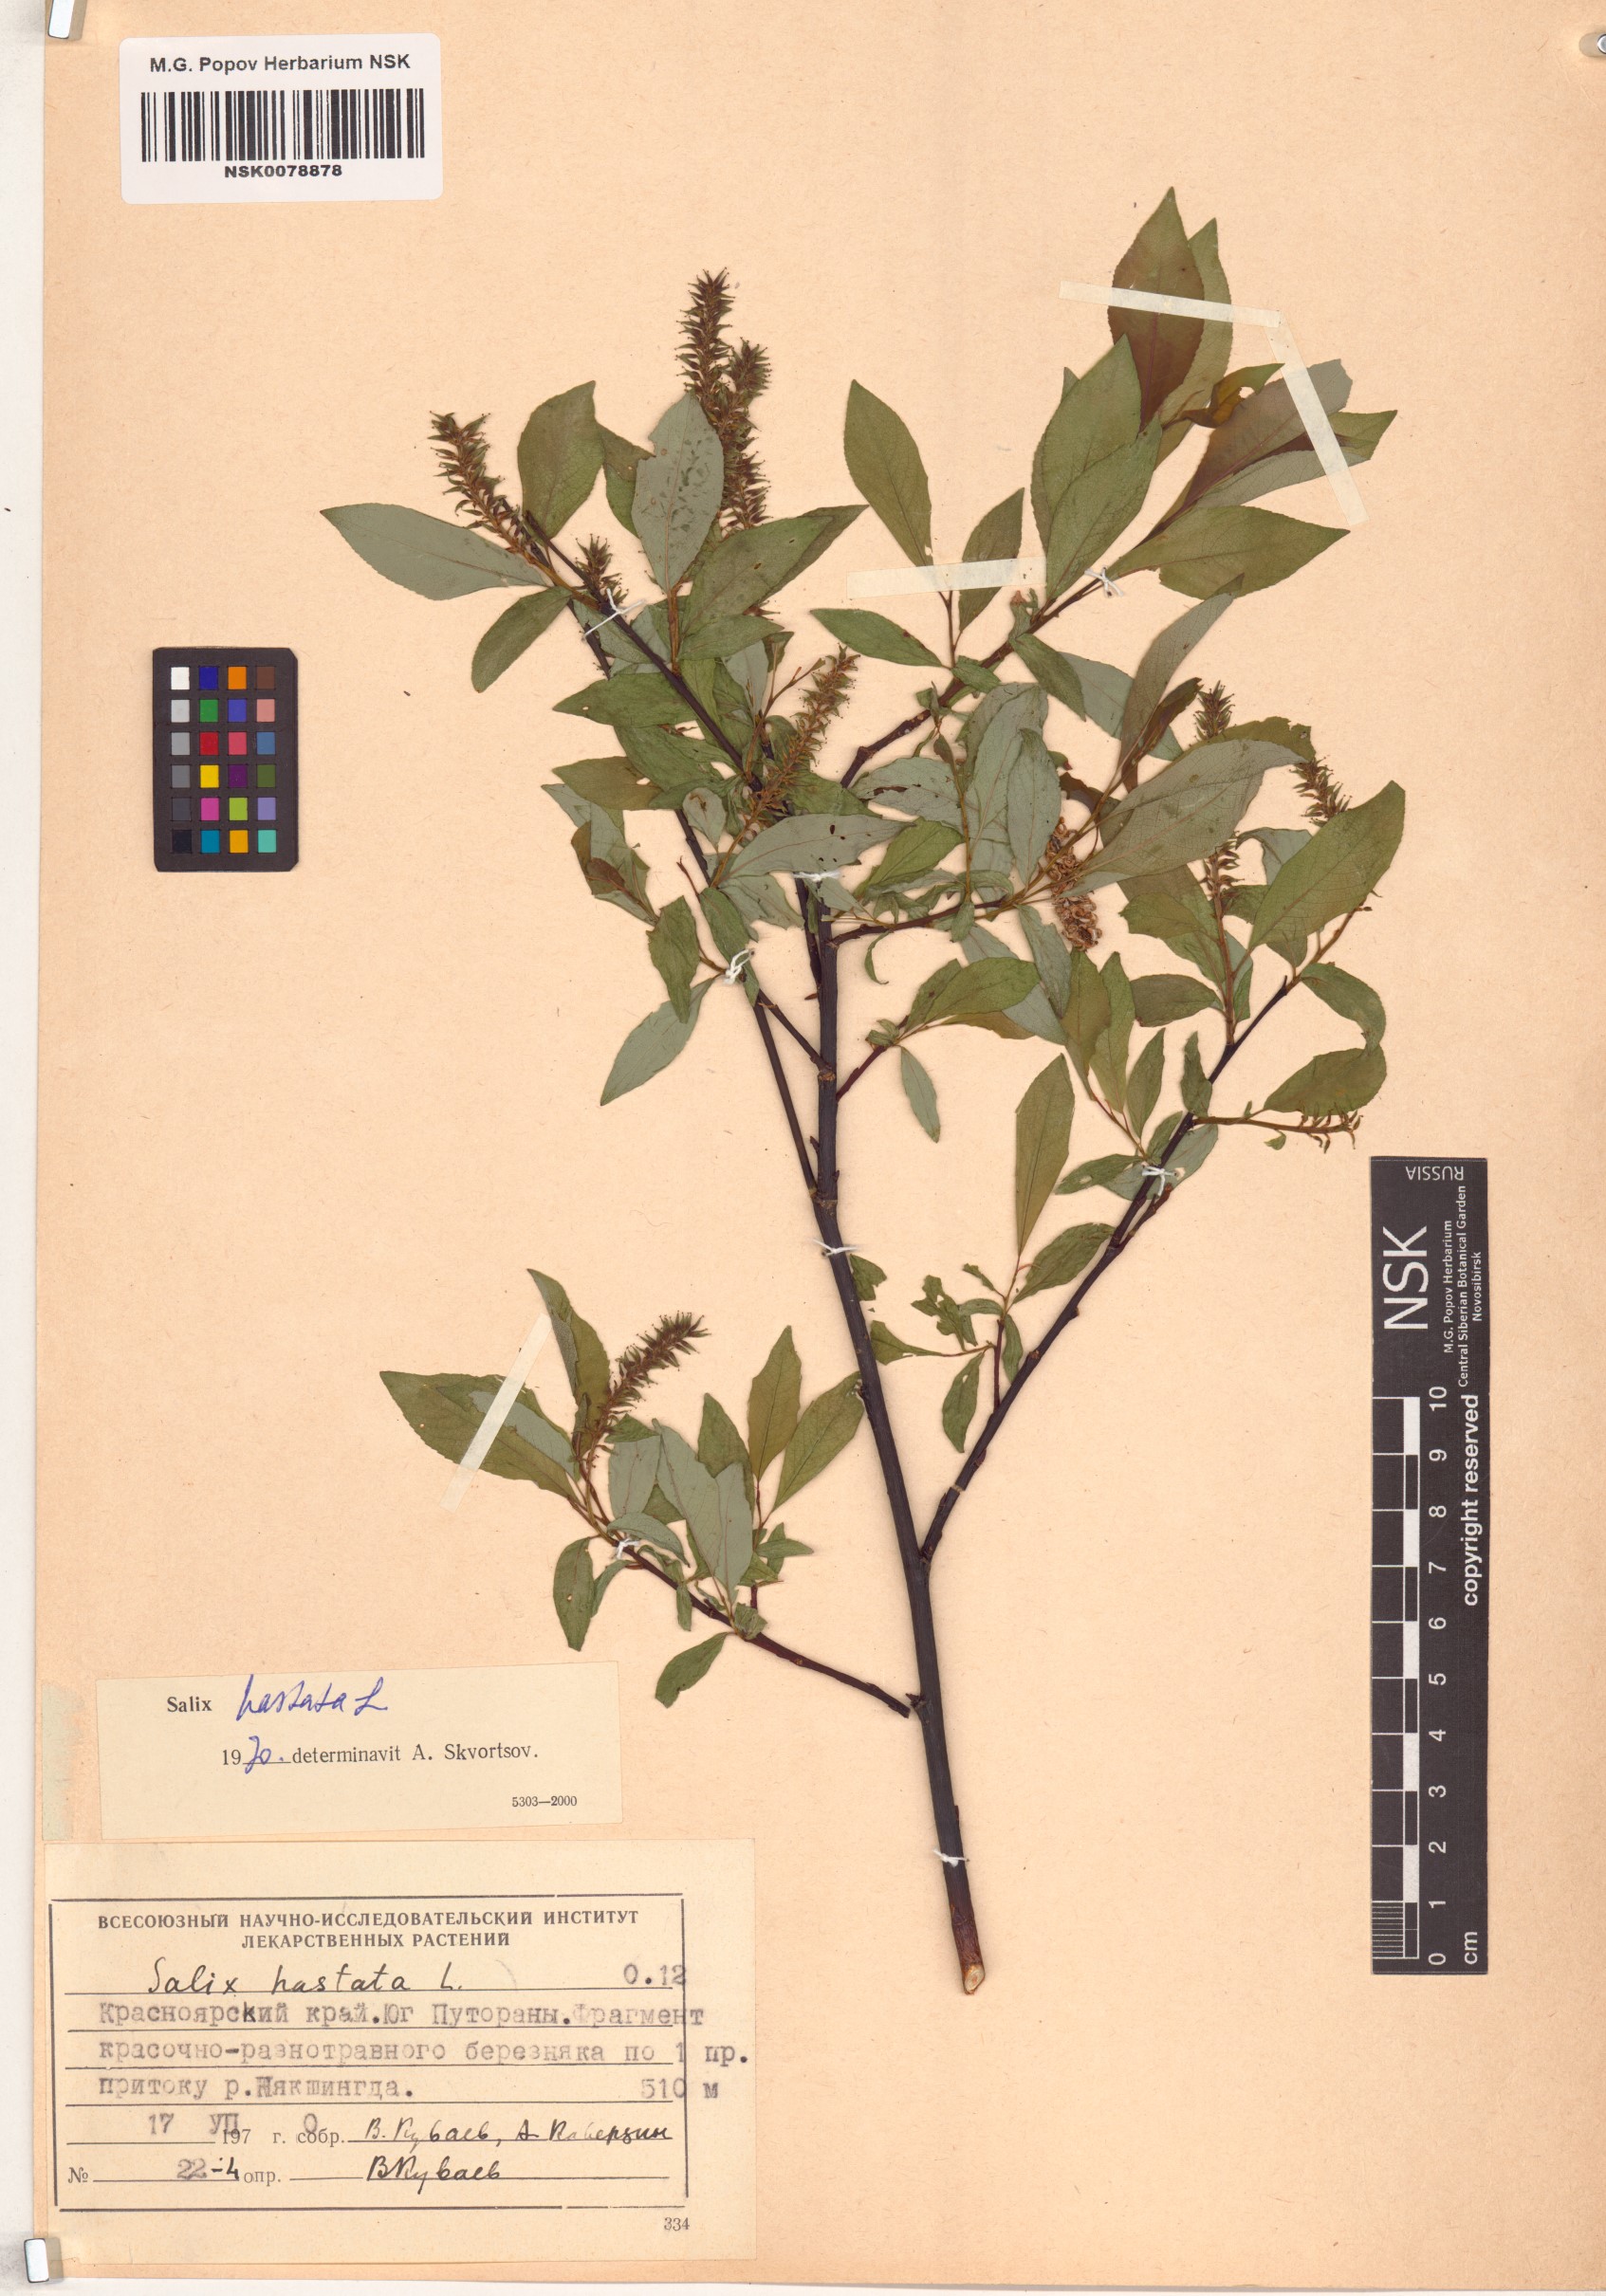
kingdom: Plantae
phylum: Tracheophyta
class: Magnoliopsida
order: Malpighiales
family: Salicaceae
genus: Salix
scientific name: Salix hastata
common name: Halberd willow
